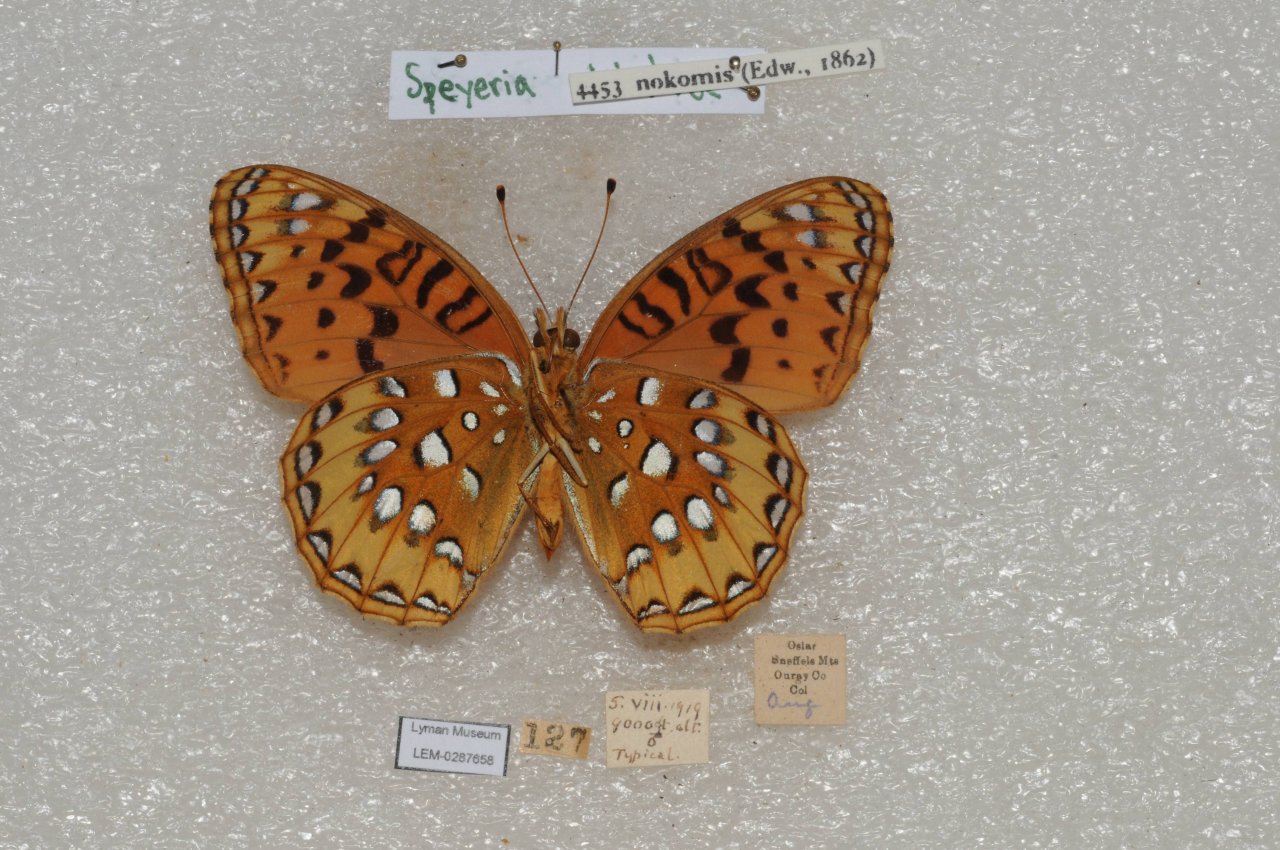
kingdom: Animalia
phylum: Arthropoda
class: Insecta
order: Lepidoptera
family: Nymphalidae
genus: Speyeria
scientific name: Speyeria nokomis
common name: Nokomis Fritillary
